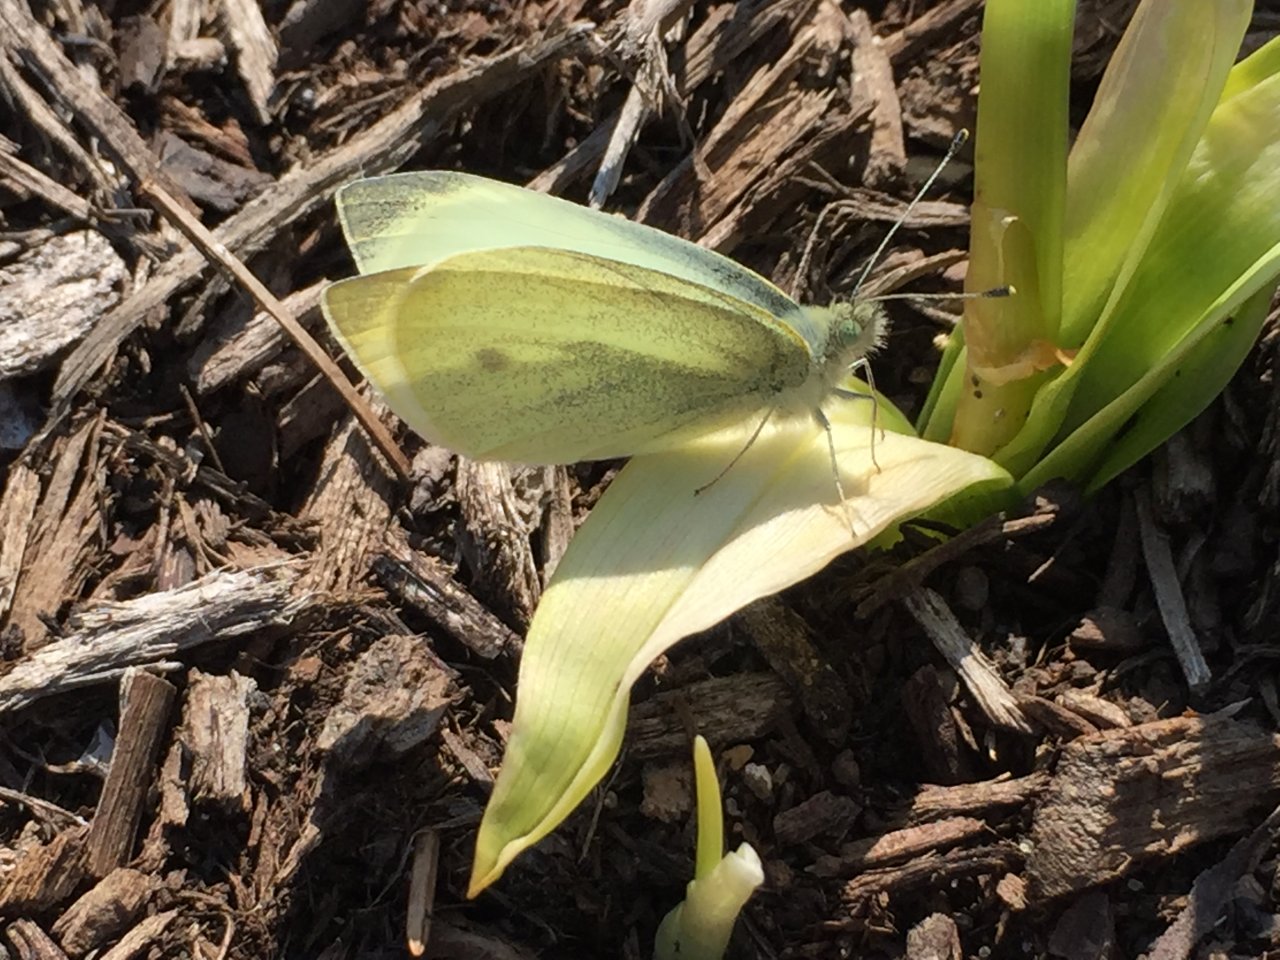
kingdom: Animalia
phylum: Arthropoda
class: Insecta
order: Lepidoptera
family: Pieridae
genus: Pieris
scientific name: Pieris rapae
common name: Cabbage White
